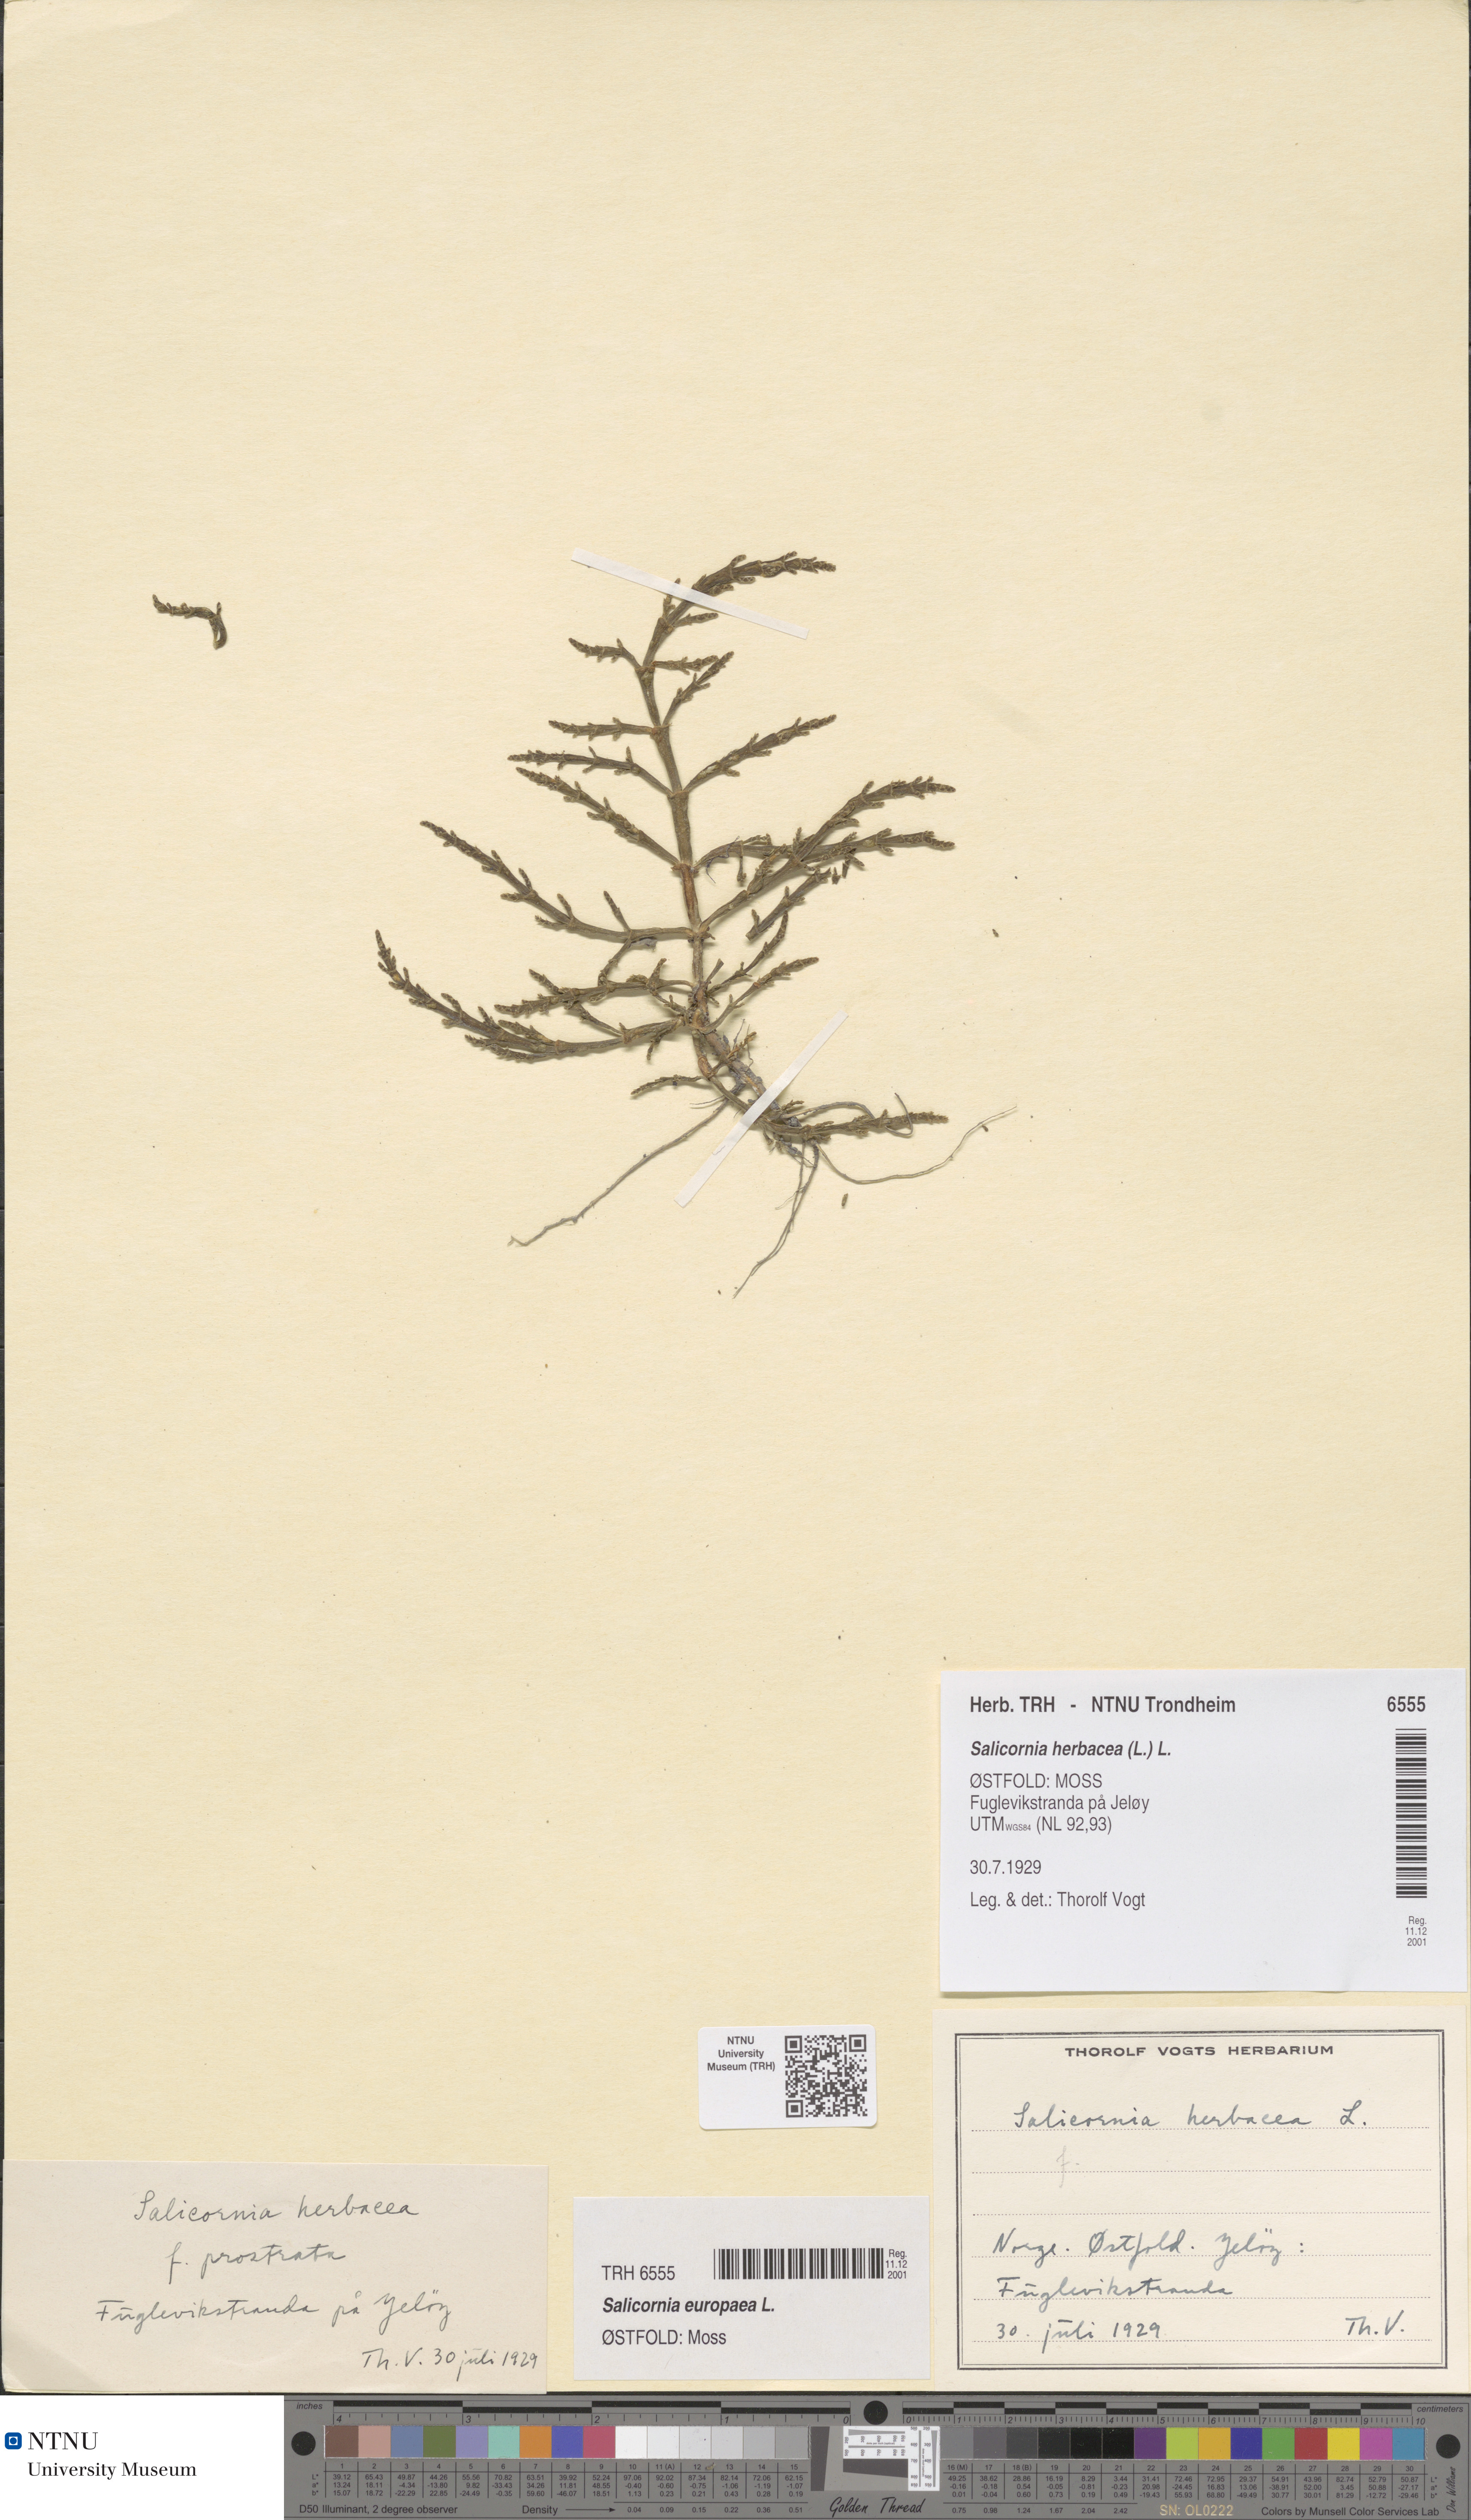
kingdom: Plantae
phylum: Tracheophyta
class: Magnoliopsida
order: Caryophyllales
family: Amaranthaceae
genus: Salicornia
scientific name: Salicornia europaea
